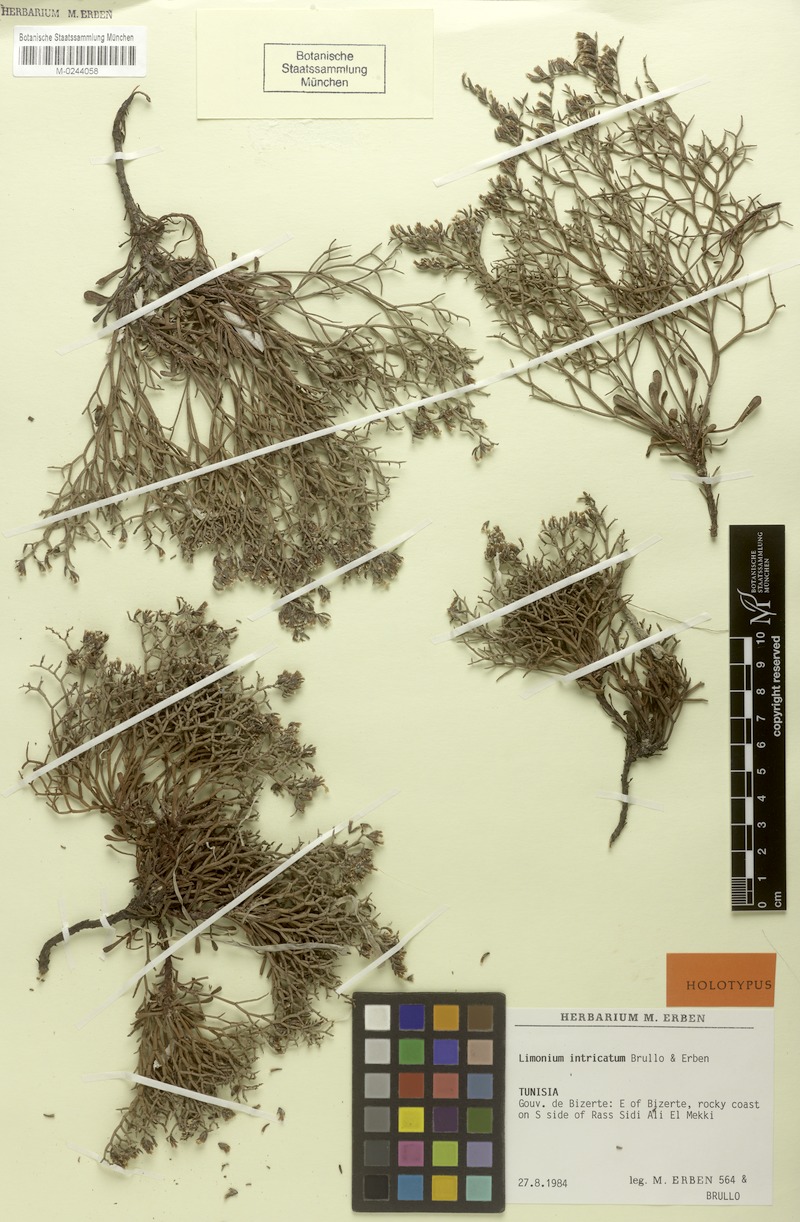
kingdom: Plantae
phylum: Tracheophyta
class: Magnoliopsida
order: Caryophyllales
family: Plumbaginaceae
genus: Limonium
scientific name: Limonium intricatum
